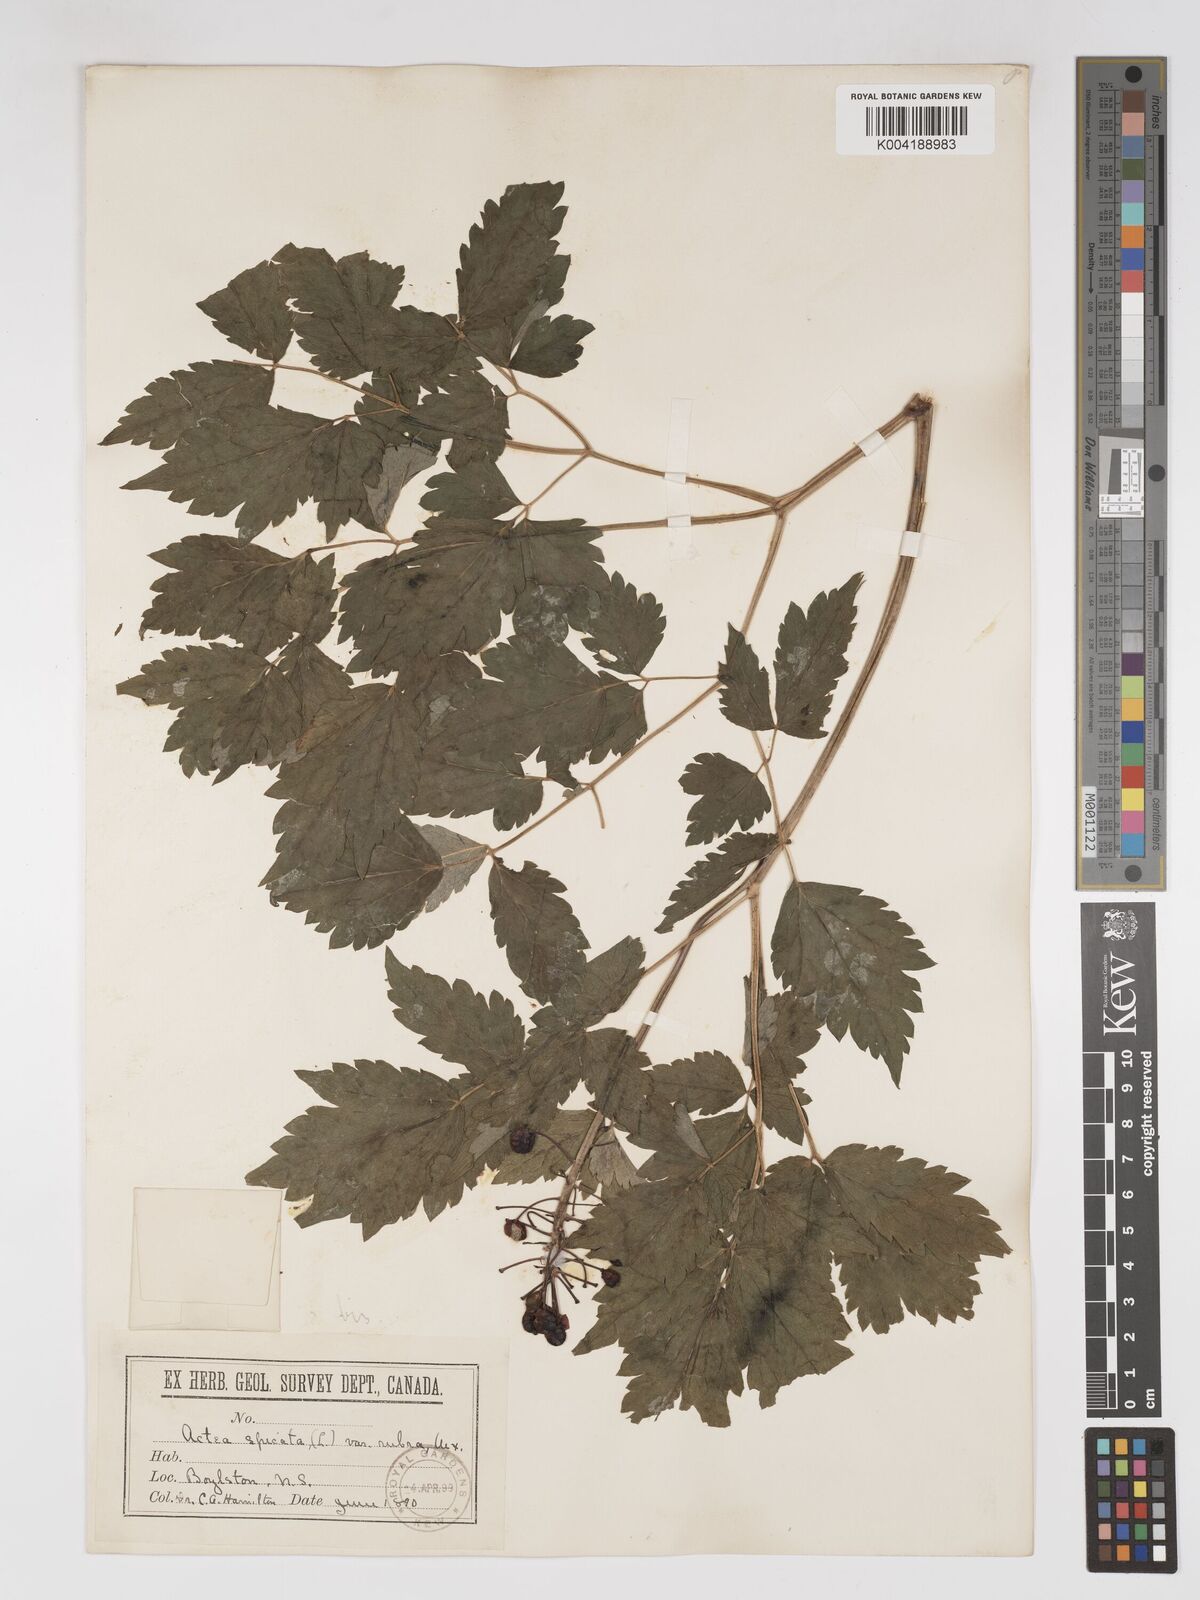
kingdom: Plantae
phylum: Tracheophyta
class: Magnoliopsida
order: Ranunculales
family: Ranunculaceae
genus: Actaea
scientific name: Actaea
